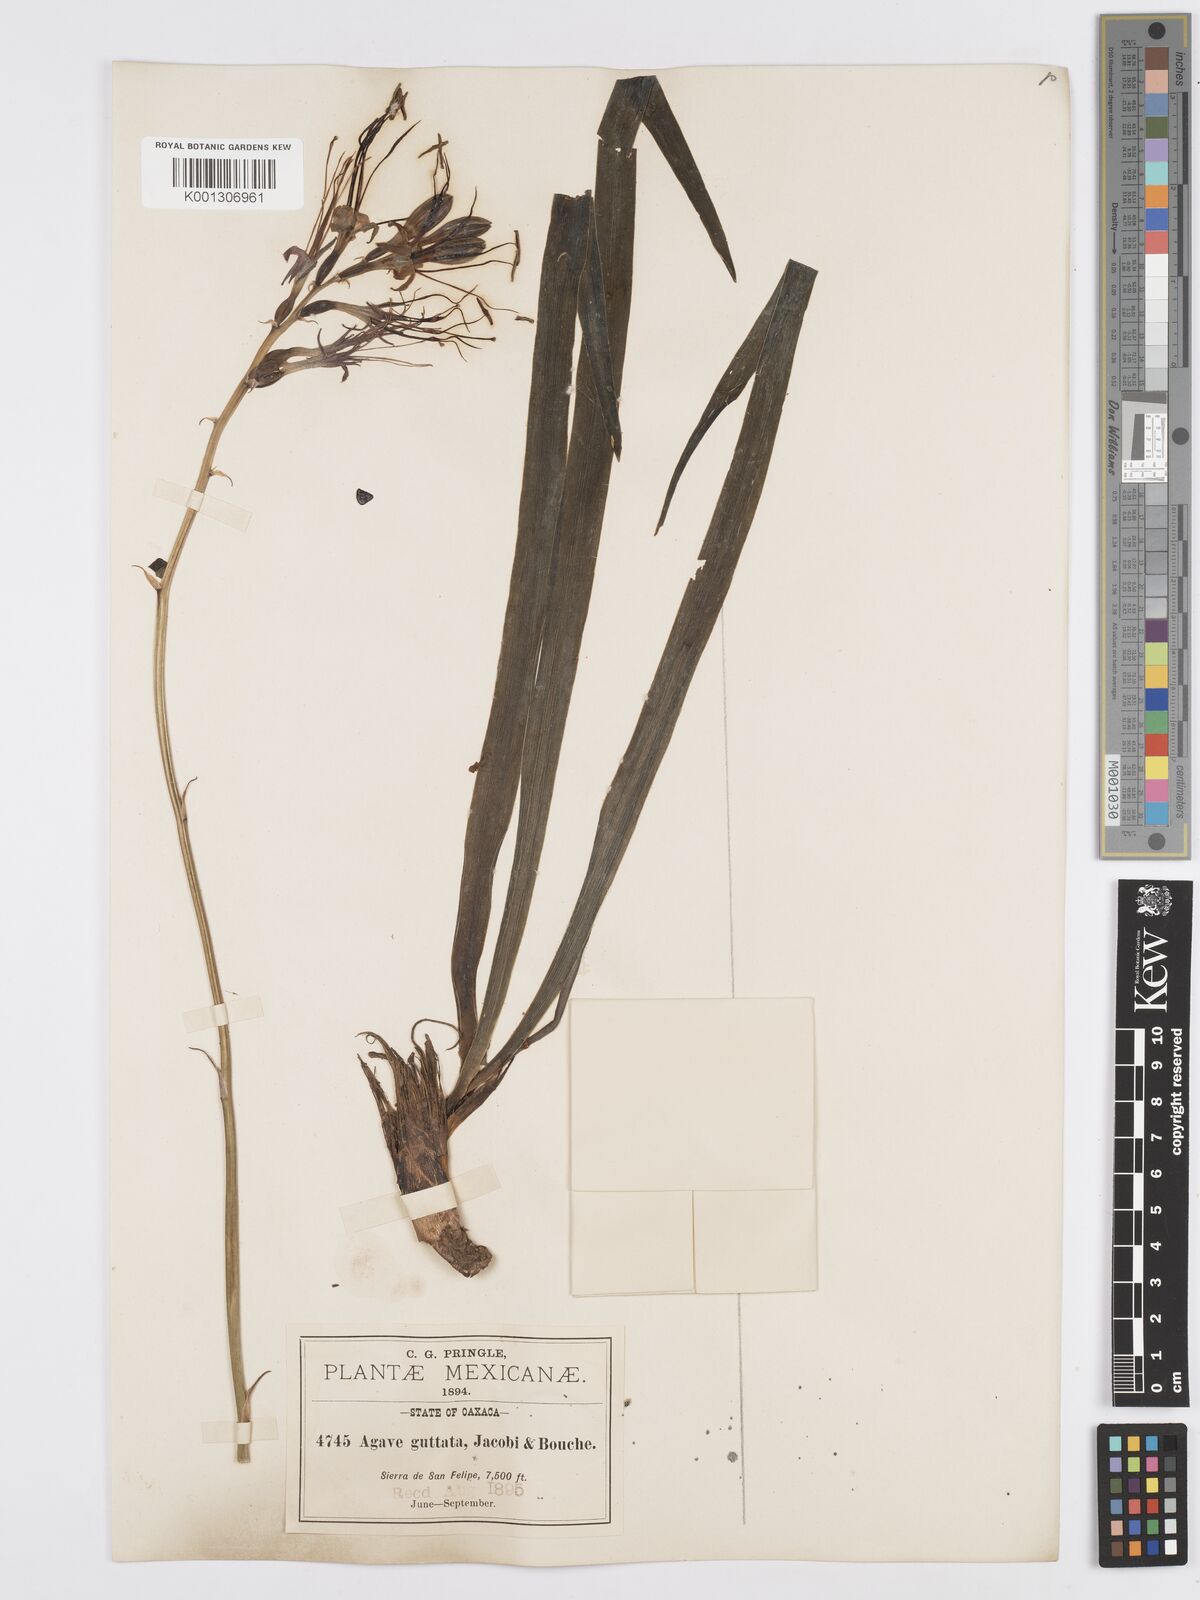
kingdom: Plantae
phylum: Tracheophyta
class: Liliopsida
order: Asparagales
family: Asparagaceae
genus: Agave
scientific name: Agave guttata
